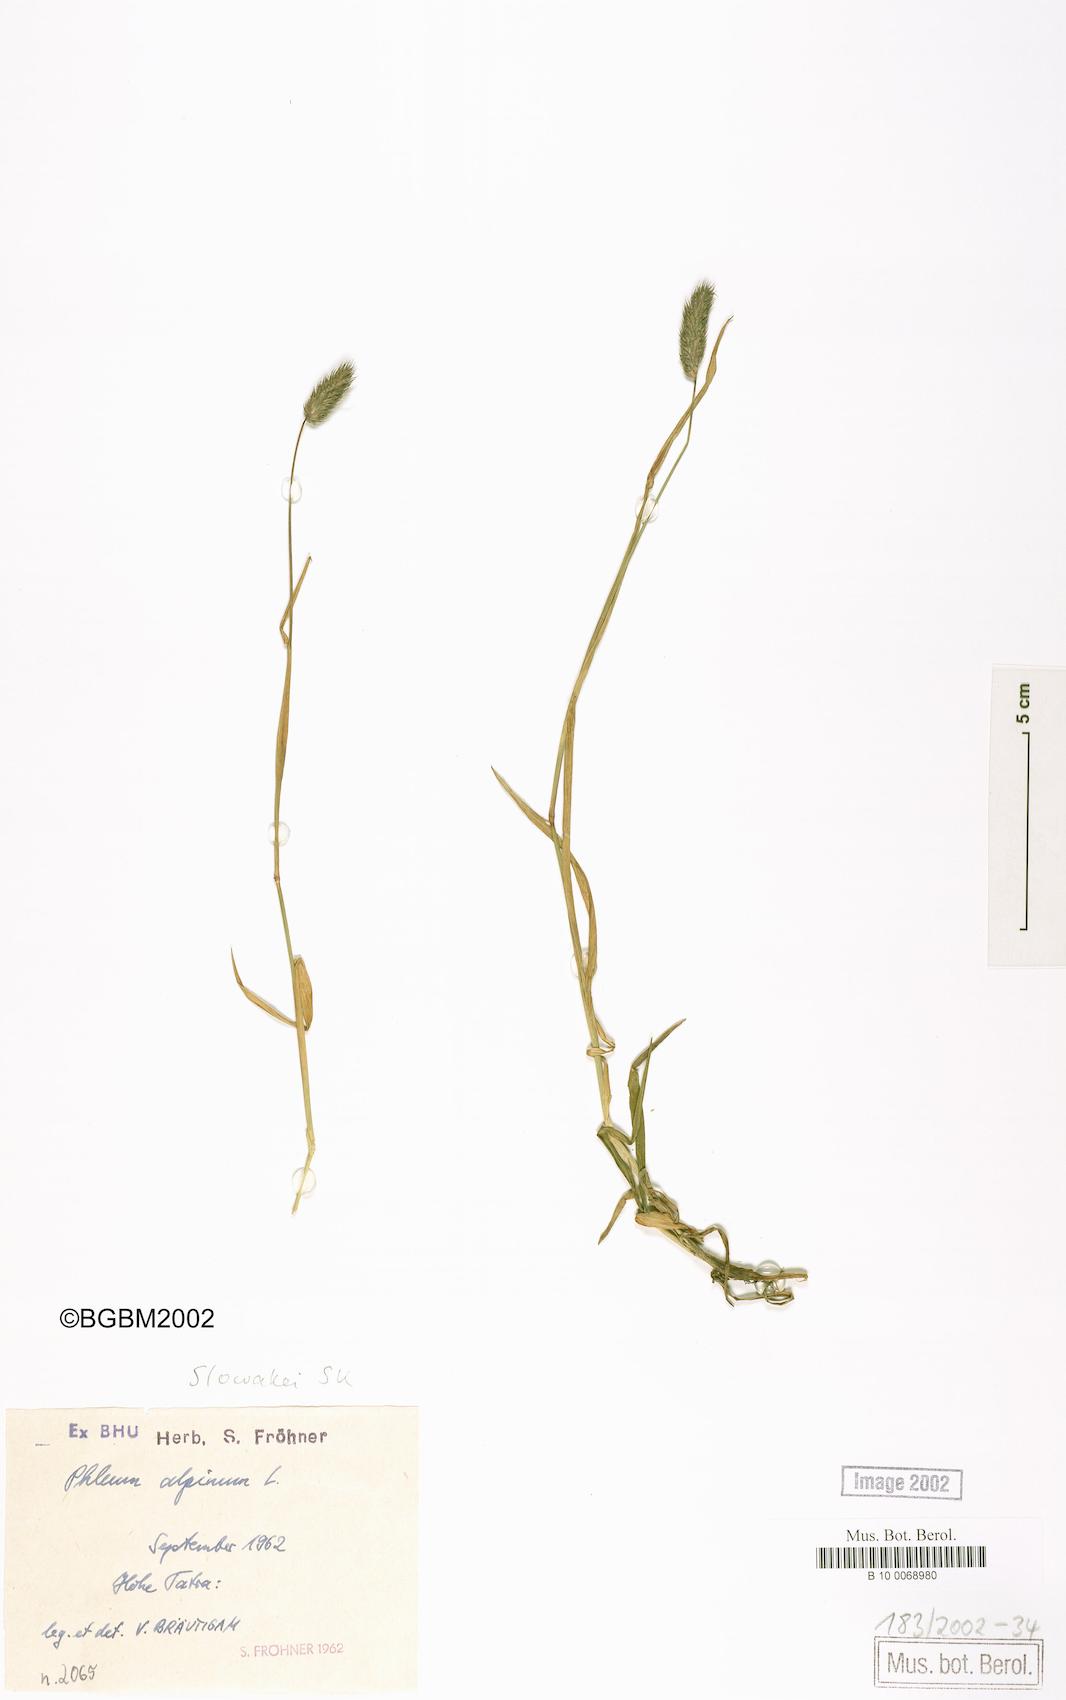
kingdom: Plantae
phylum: Tracheophyta
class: Liliopsida
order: Poales
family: Poaceae
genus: Phleum
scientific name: Phleum alpinum
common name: Alpine cat's-tail
